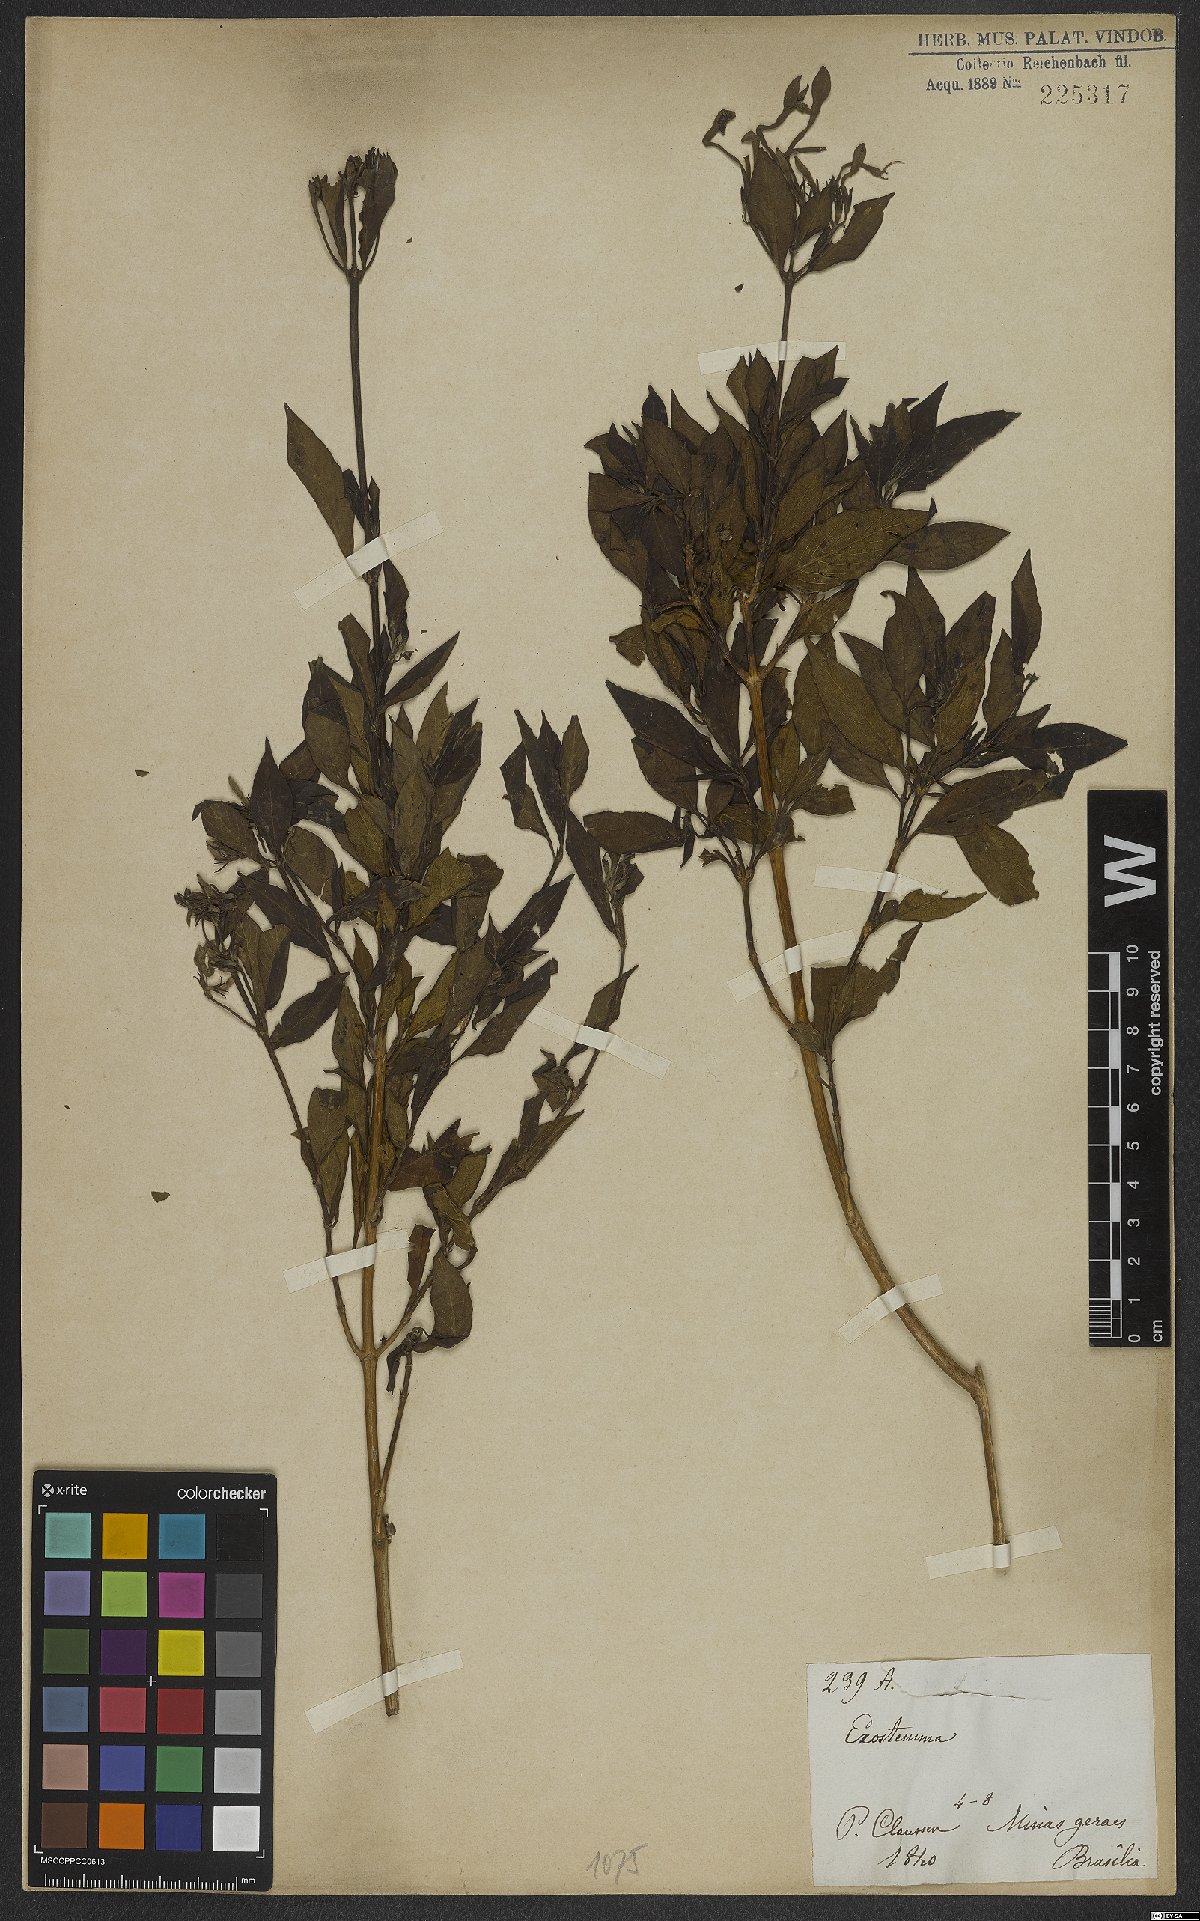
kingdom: Plantae
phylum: Tracheophyta
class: Magnoliopsida
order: Gentianales
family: Rubiaceae
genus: Exostema
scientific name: Exostema
